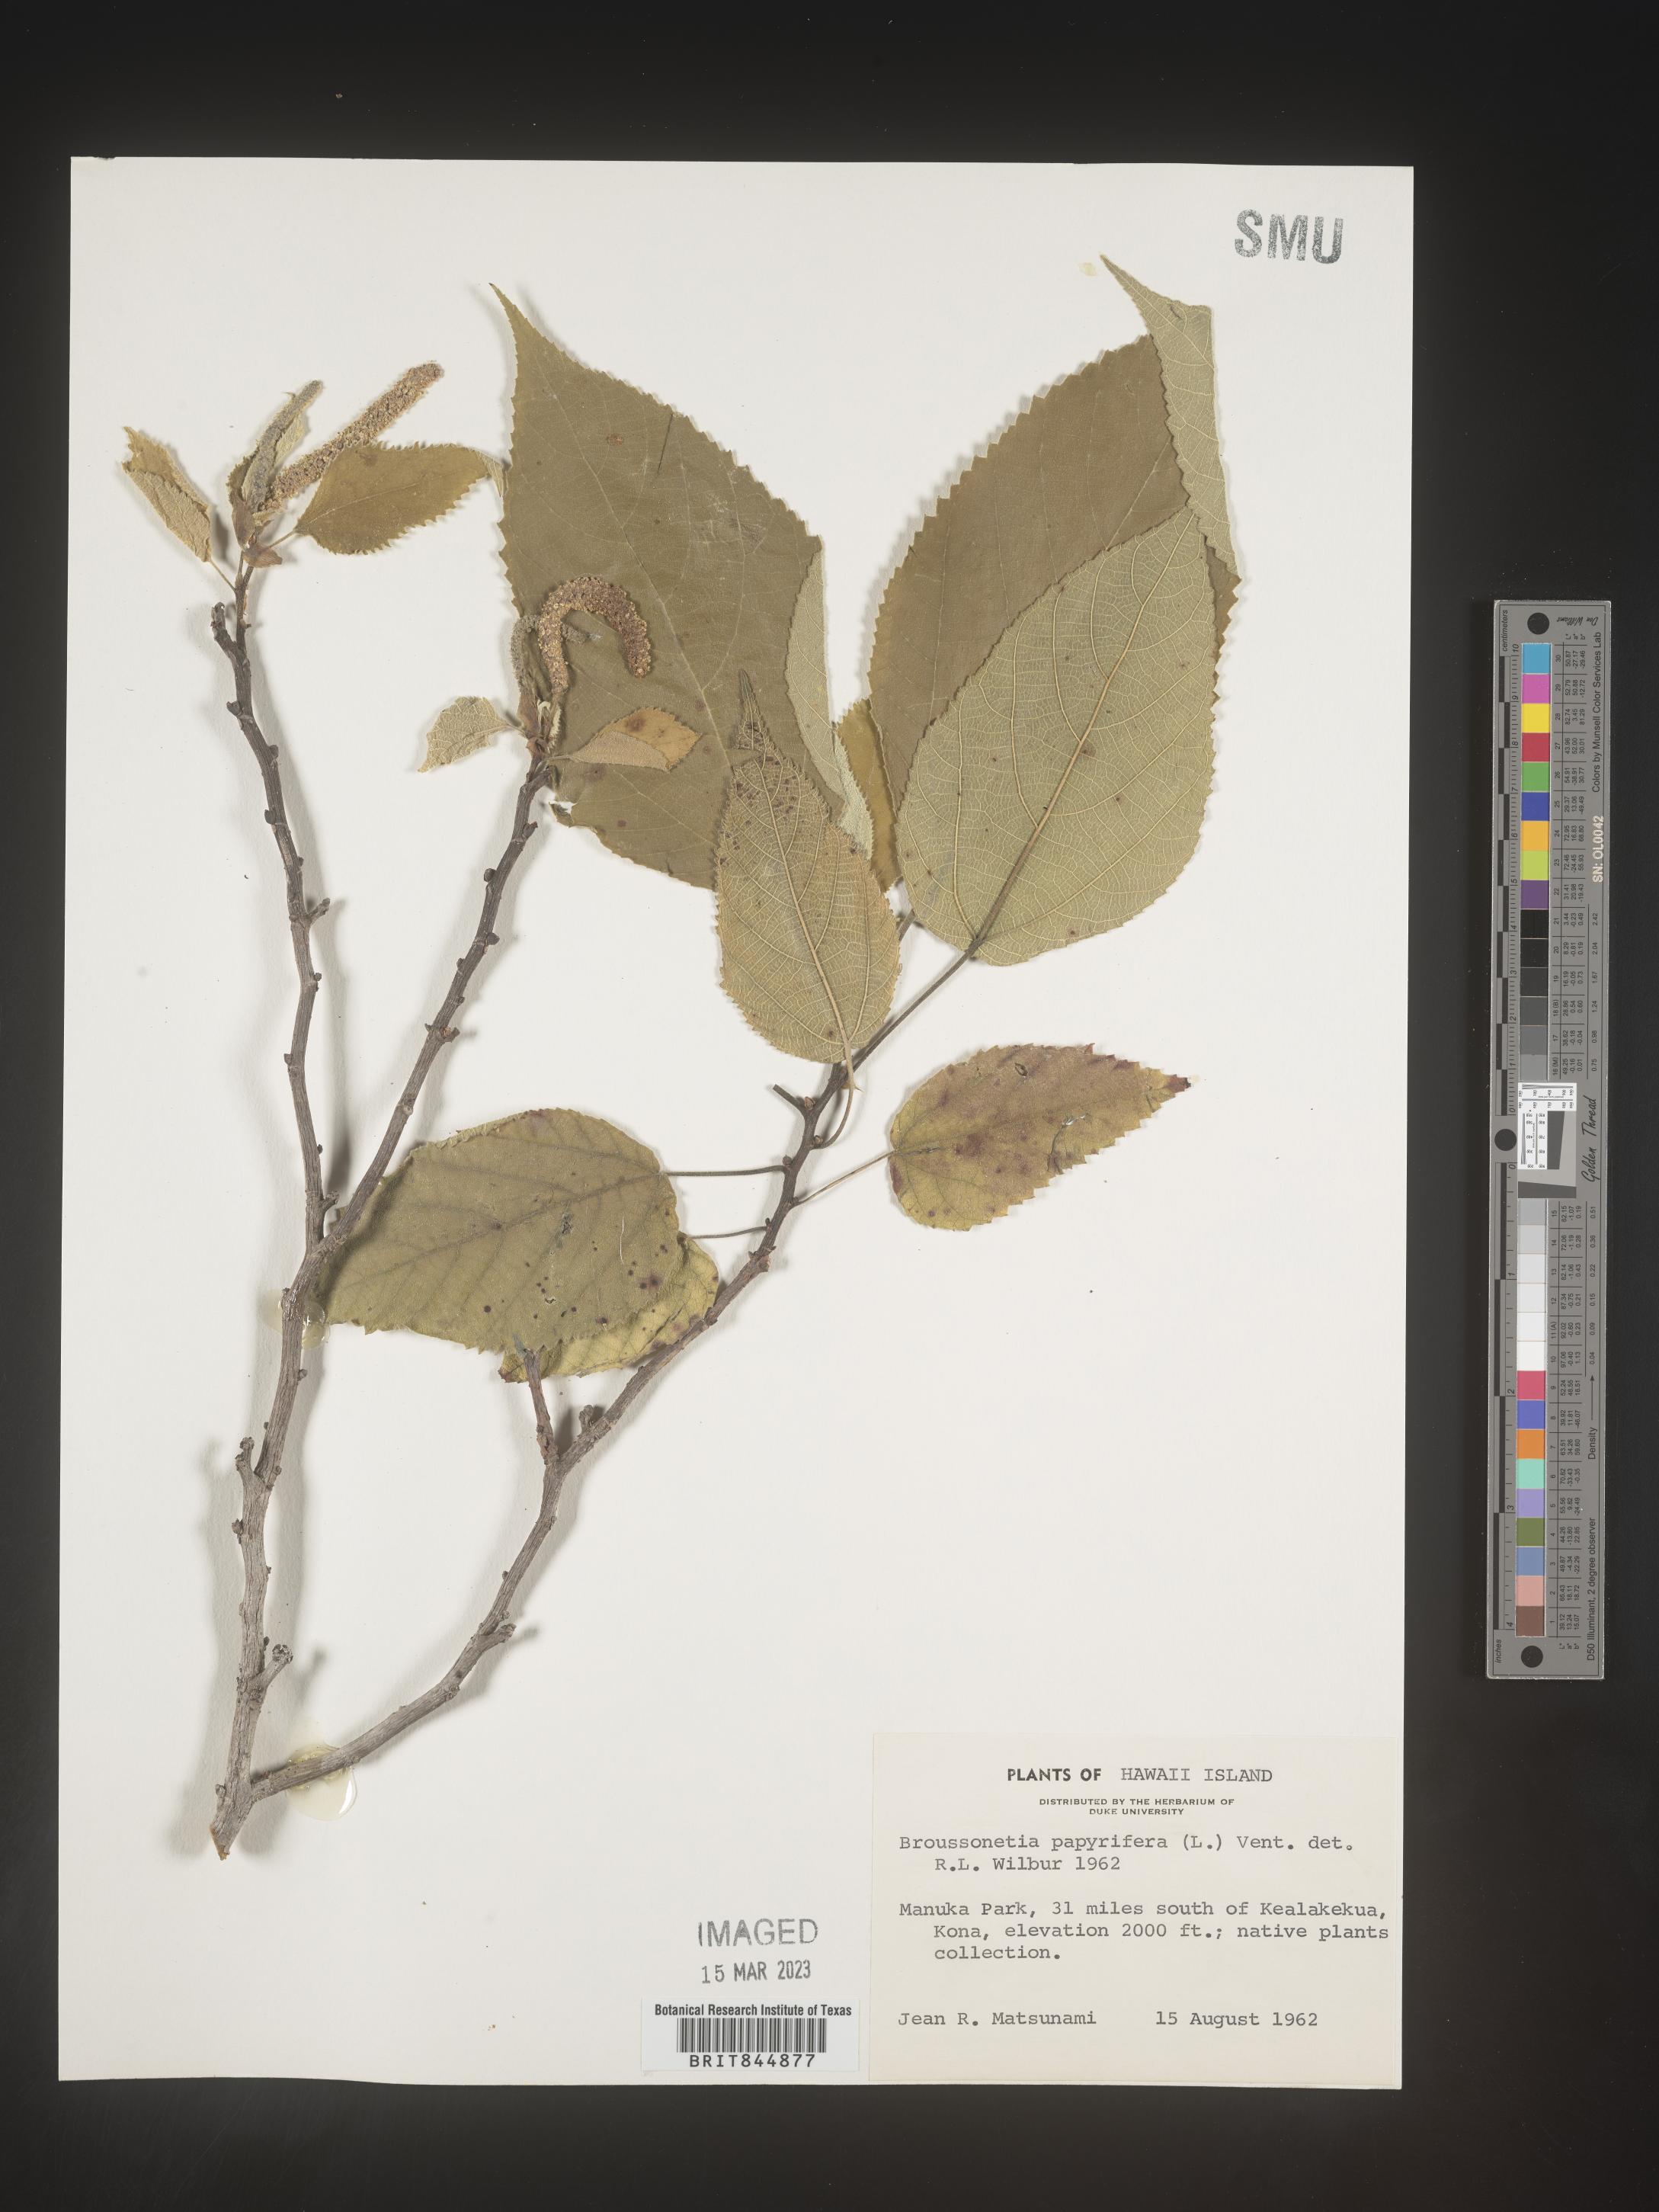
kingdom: Plantae
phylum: Tracheophyta
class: Magnoliopsida
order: Rosales
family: Moraceae
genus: Broussonetia
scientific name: Broussonetia
